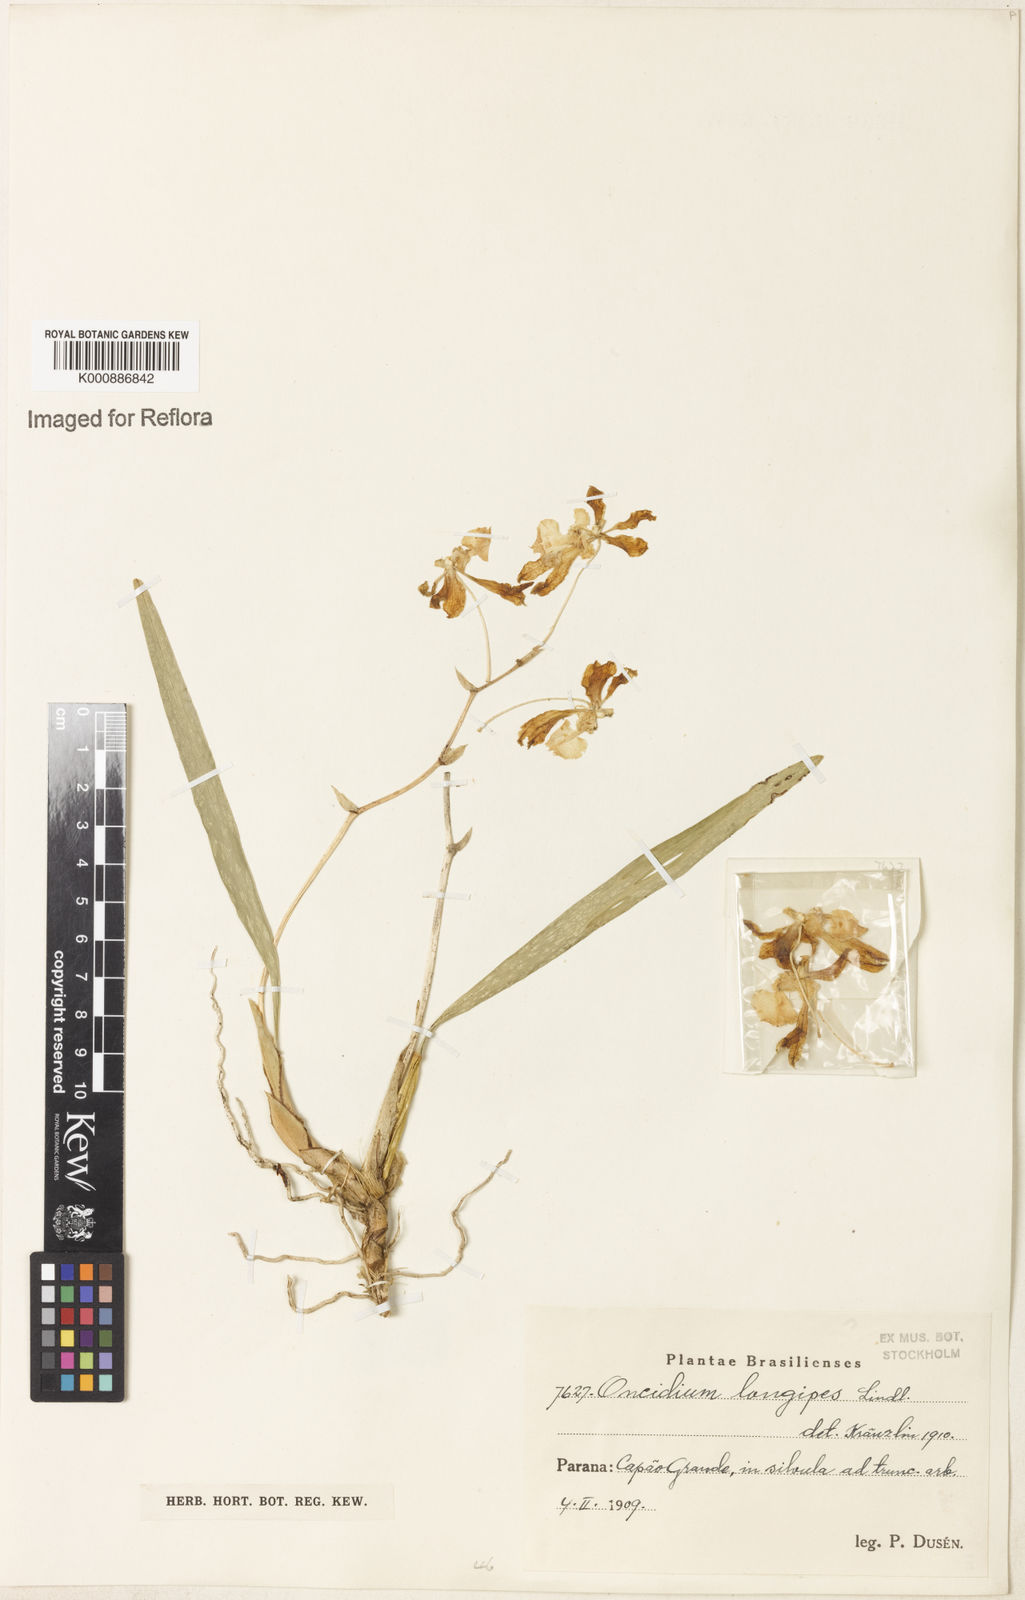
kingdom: Plantae
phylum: Tracheophyta
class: Liliopsida
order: Asparagales
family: Orchidaceae
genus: Gomesa
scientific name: Gomesa uniflora
